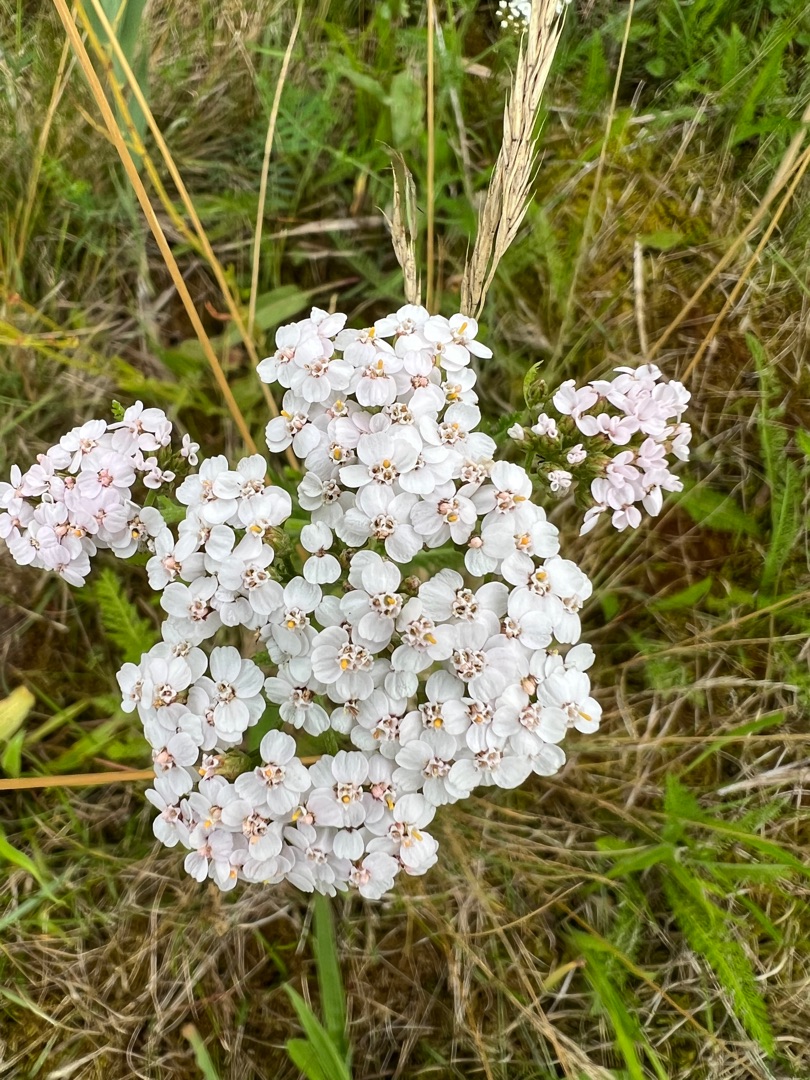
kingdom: Plantae
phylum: Tracheophyta
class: Magnoliopsida
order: Asterales
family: Asteraceae
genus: Achillea
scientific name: Achillea millefolium
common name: Almindelig røllike
